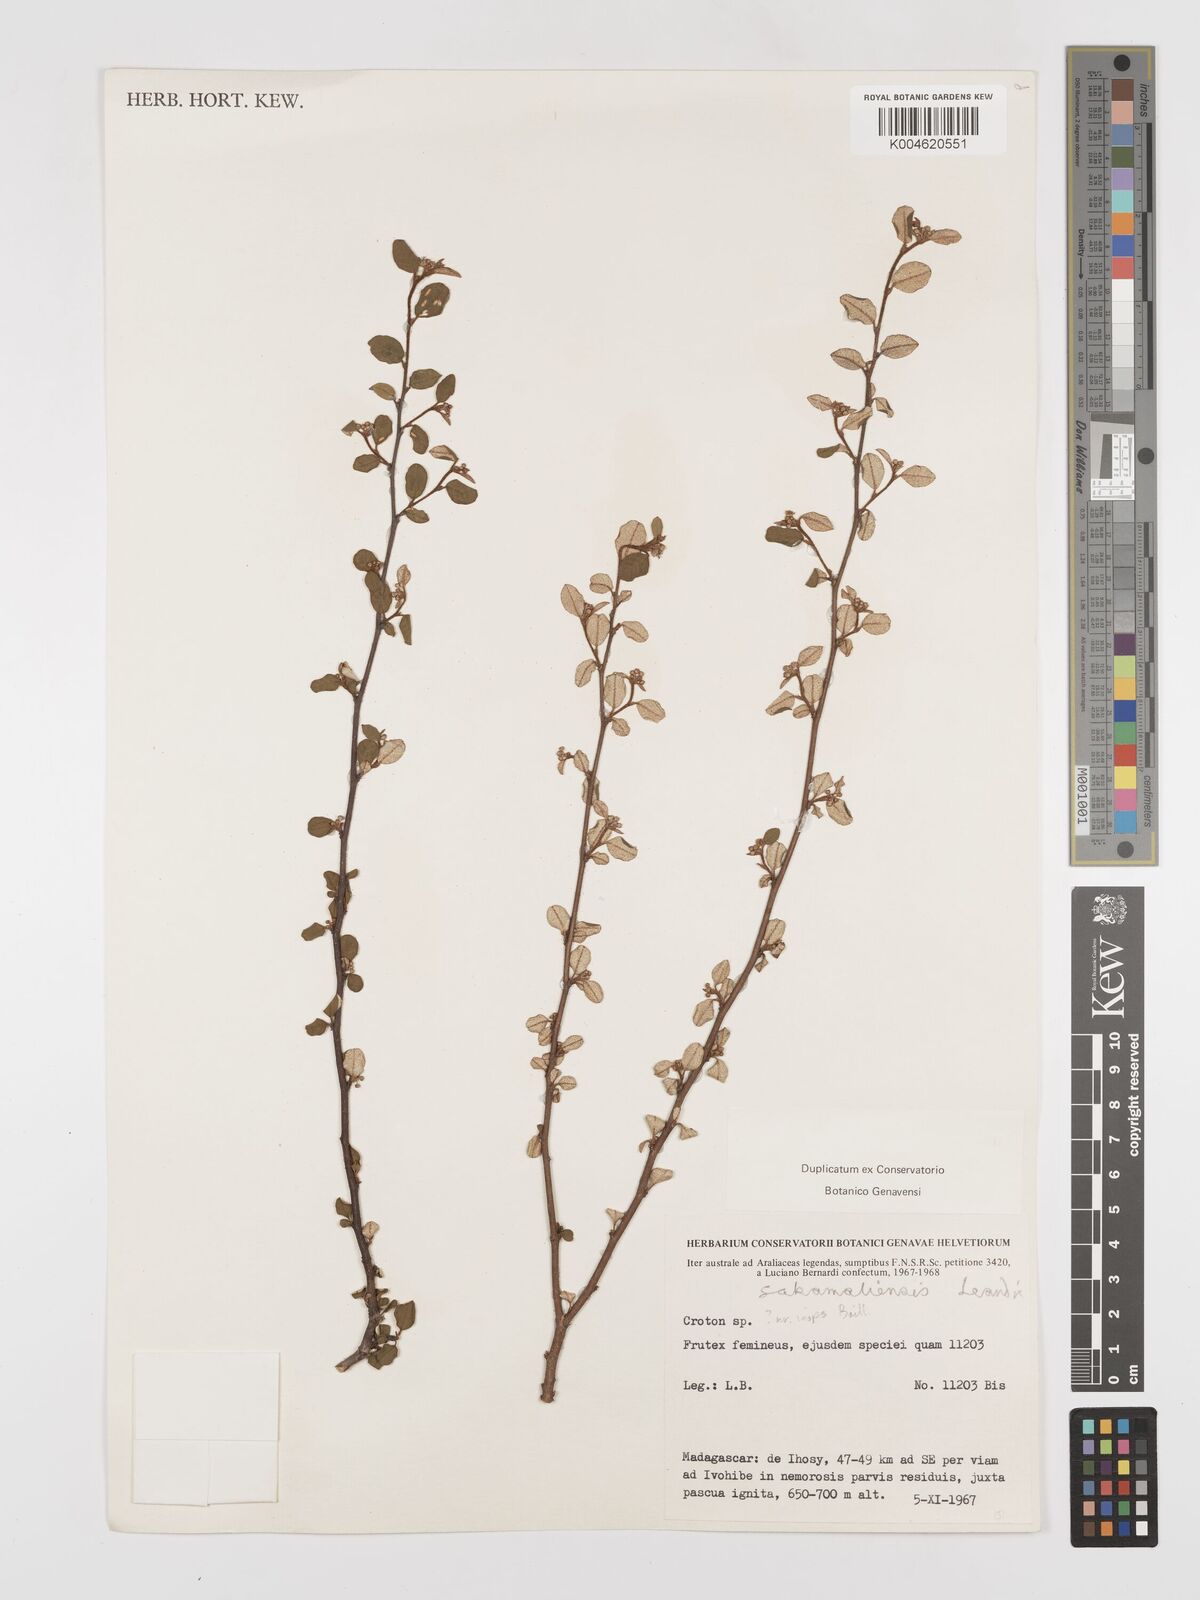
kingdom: Plantae
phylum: Tracheophyta
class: Magnoliopsida
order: Malpighiales
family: Euphorbiaceae
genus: Croton
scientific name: Croton sakamaliensis
